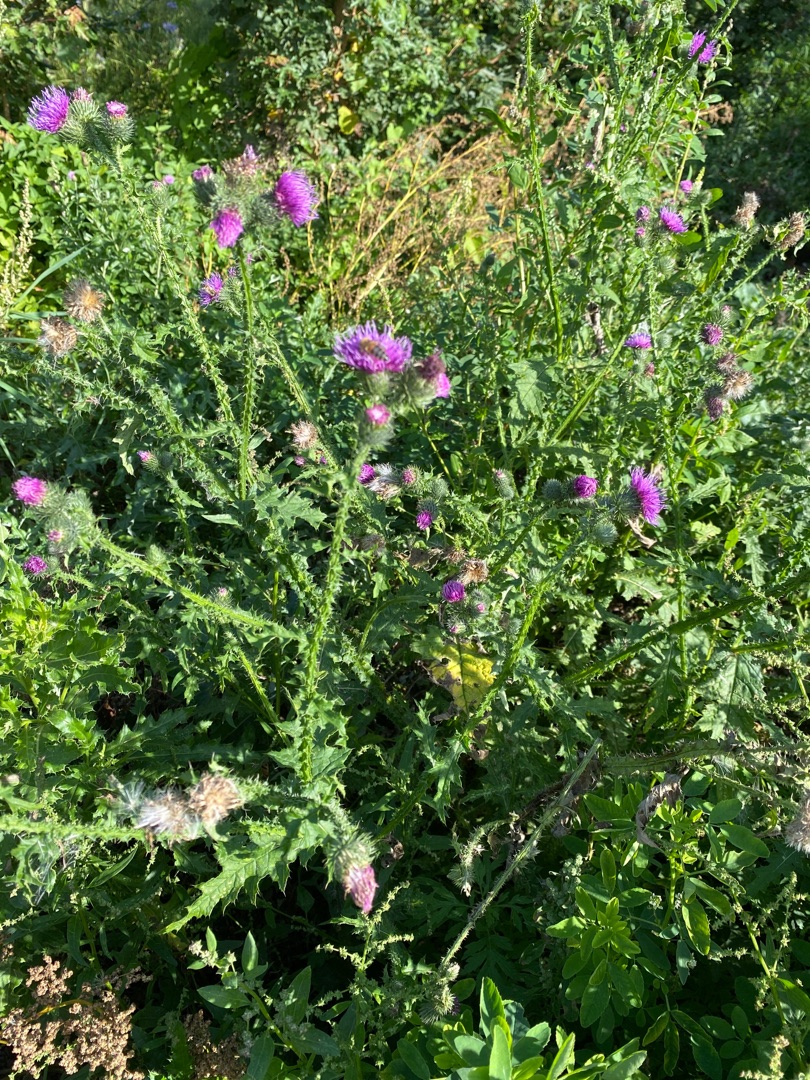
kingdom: Plantae
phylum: Tracheophyta
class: Magnoliopsida
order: Asterales
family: Asteraceae
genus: Carduus
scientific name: Carduus crispus
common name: Kruset tidsel
